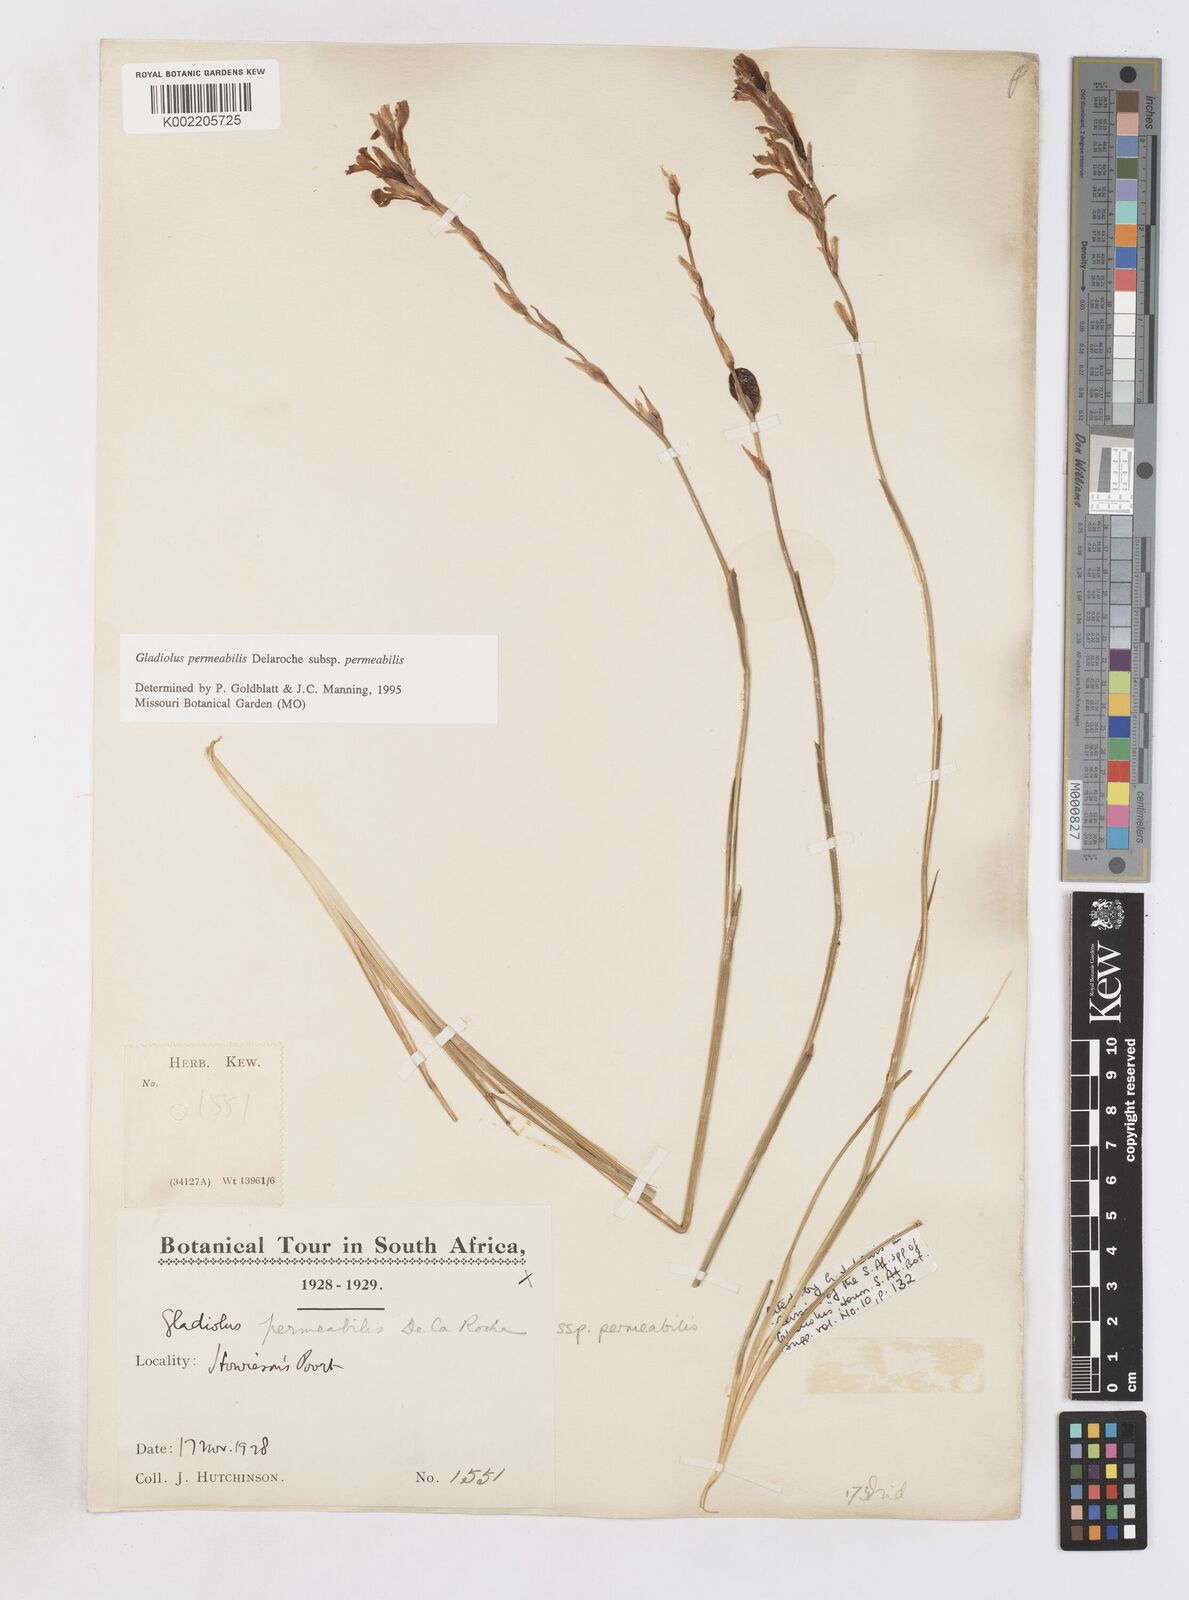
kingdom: Plantae
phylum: Tracheophyta
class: Liliopsida
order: Asparagales
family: Iridaceae
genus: Gladiolus
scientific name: Gladiolus permeabilis
